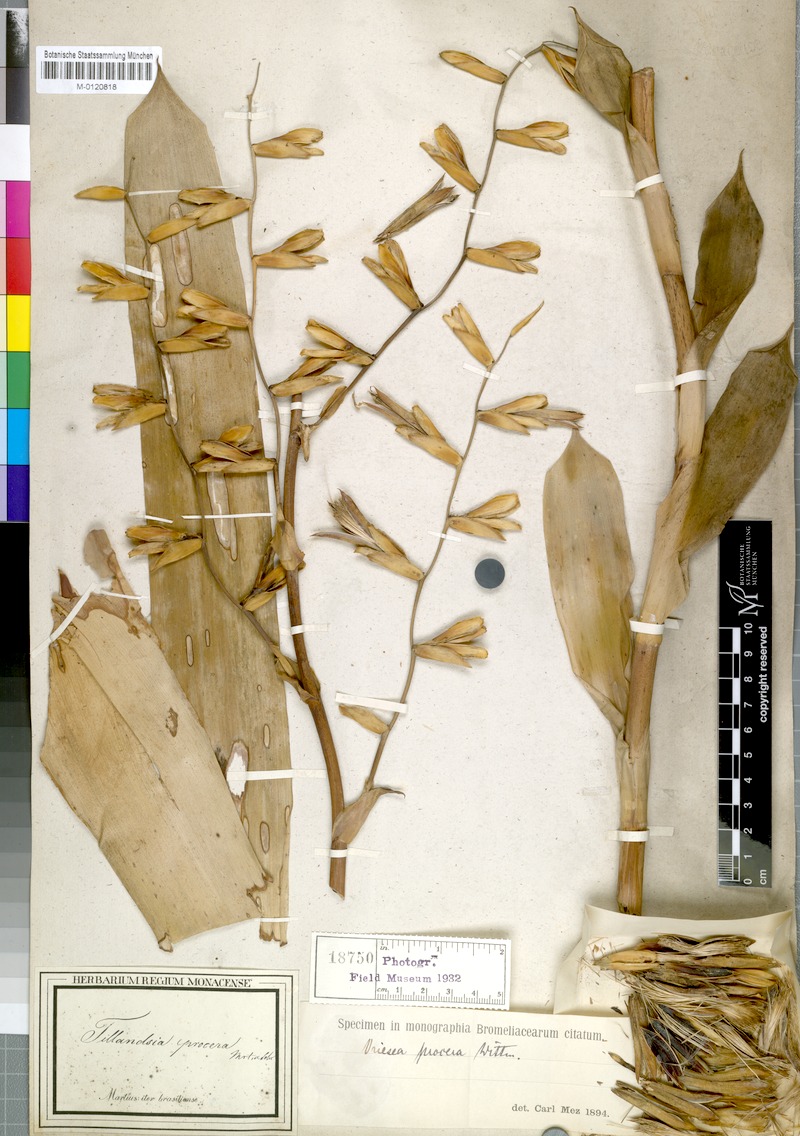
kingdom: Plantae
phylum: Tracheophyta
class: Liliopsida
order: Poales
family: Bromeliaceae
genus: Vriesea
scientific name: Vriesea procera
